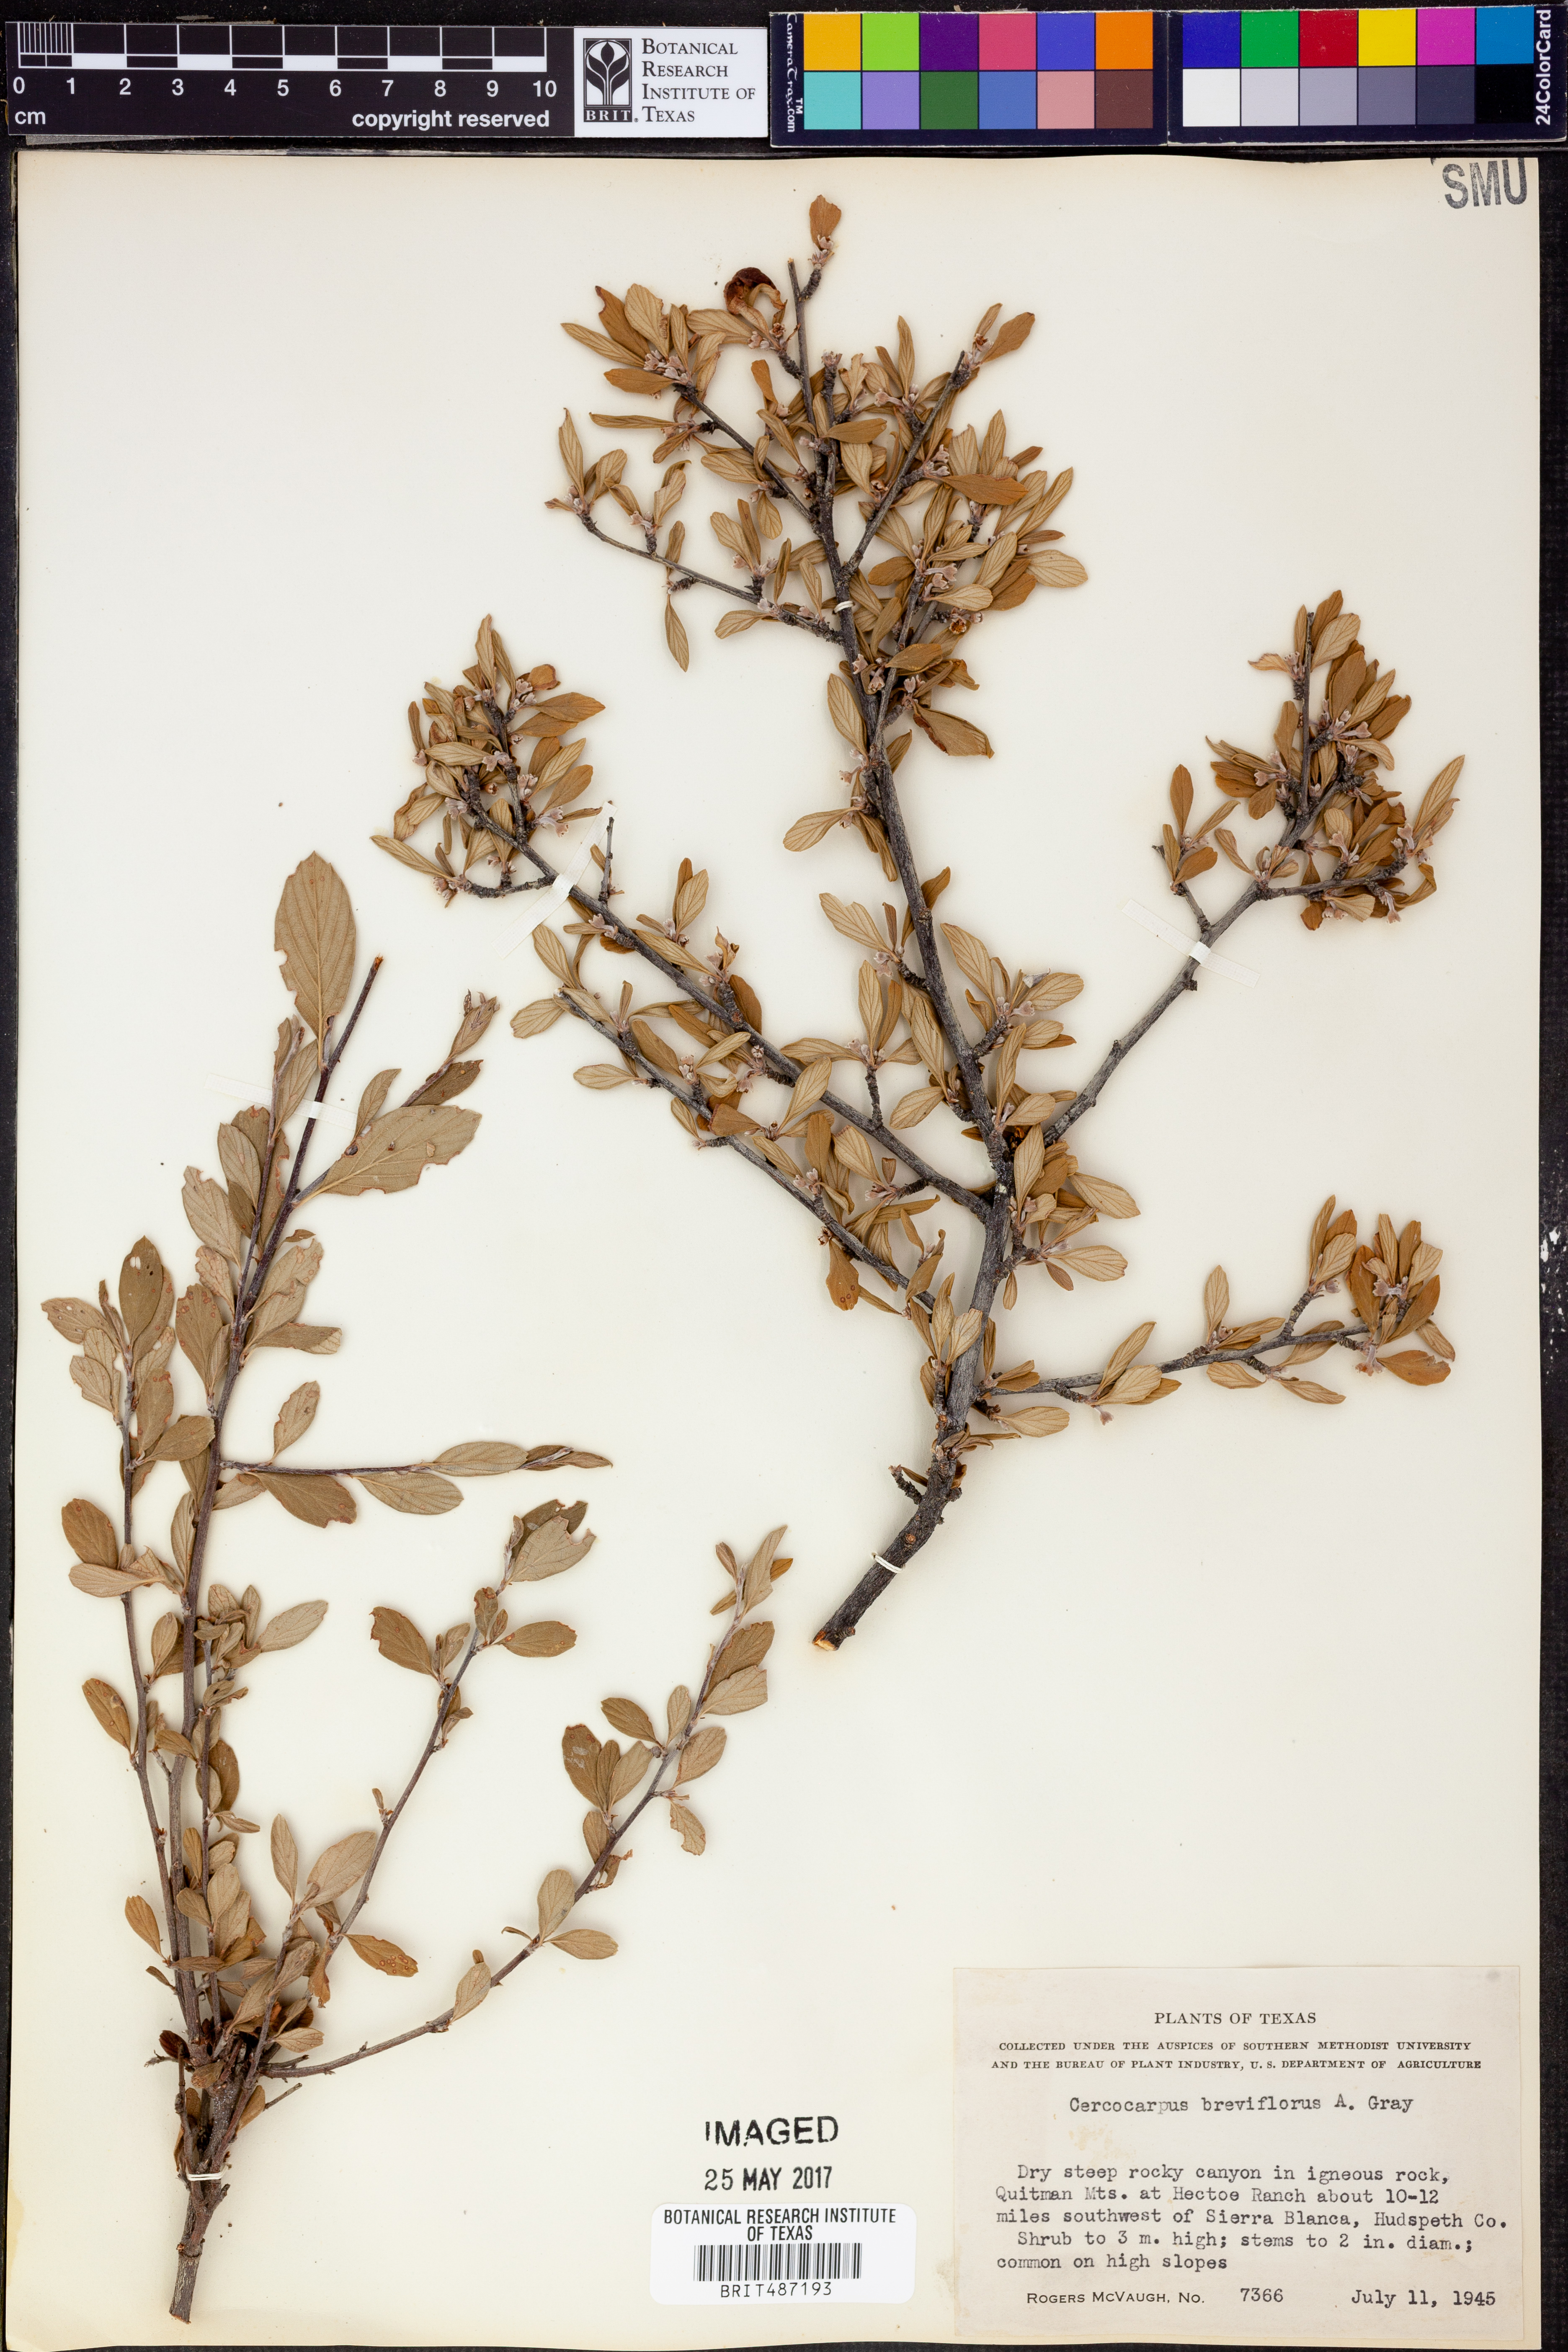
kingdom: Plantae
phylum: Tracheophyta
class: Magnoliopsida
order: Rosales
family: Rosaceae
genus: Cercocarpus
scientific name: Cercocarpus breviflorus
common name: Wright's mountain-mahogany
